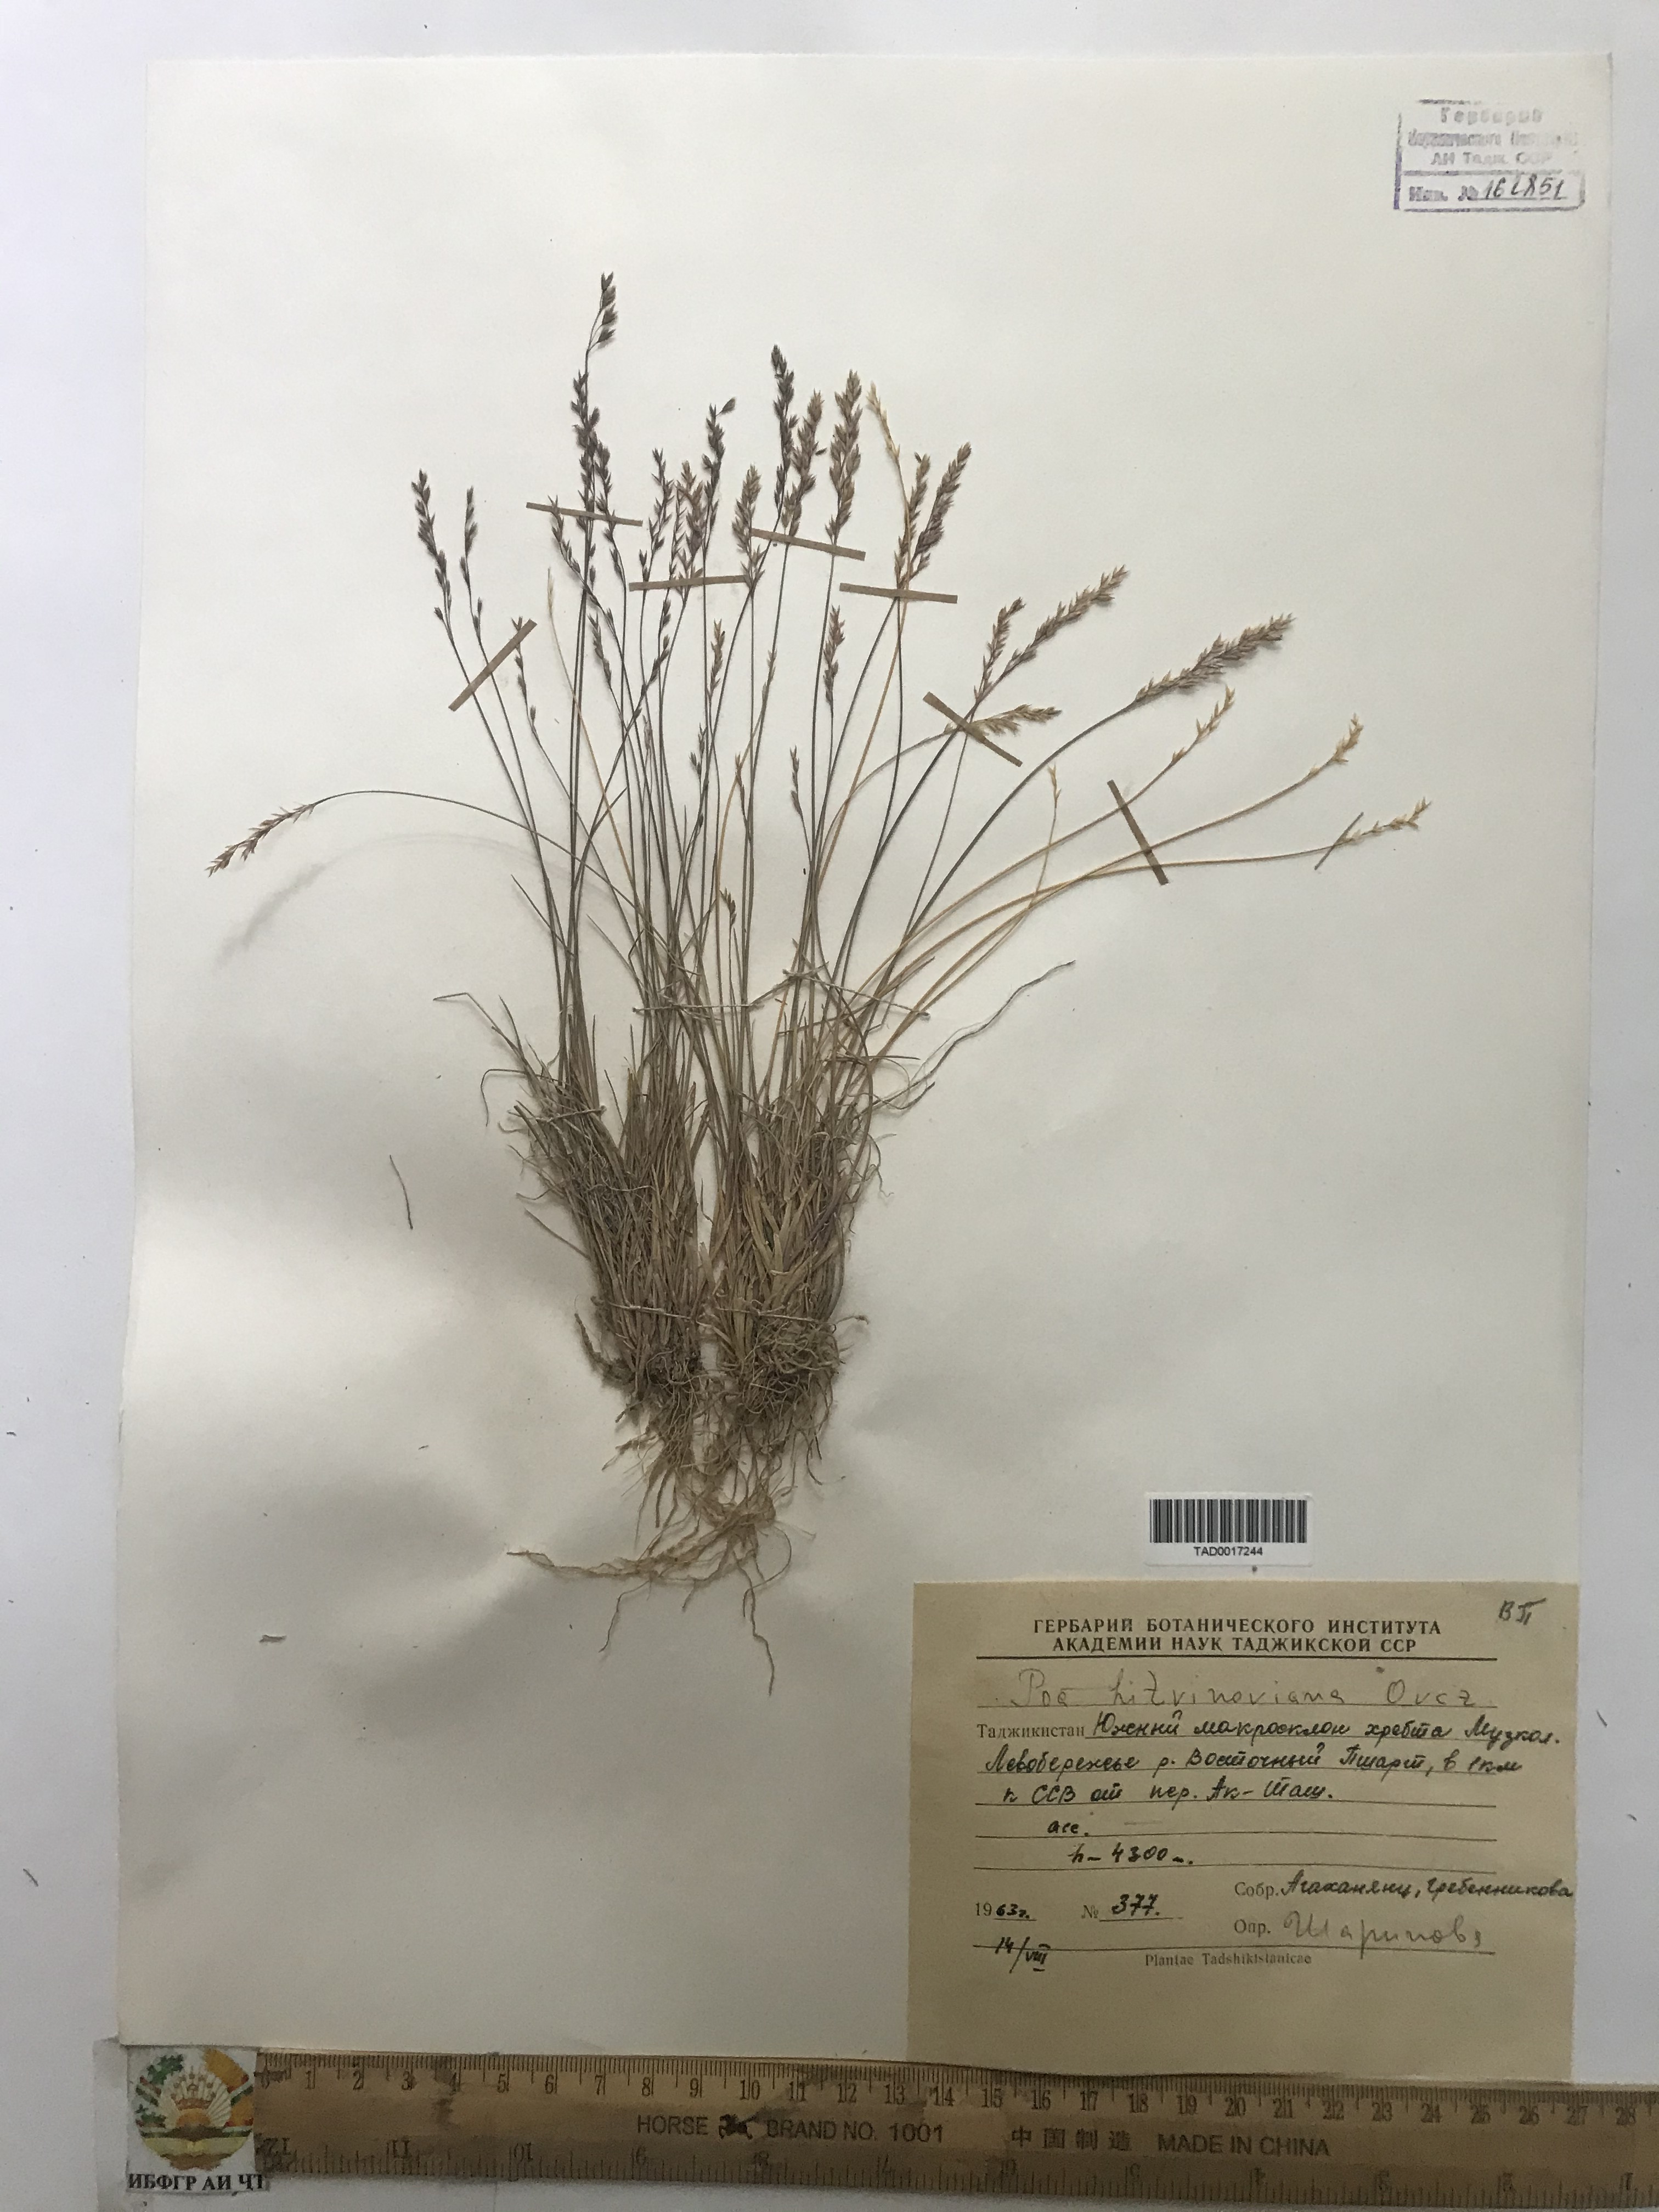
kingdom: Plantae
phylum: Tracheophyta
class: Liliopsida
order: Poales
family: Poaceae
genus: Poa
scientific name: Poa glauca
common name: Glaucous bluegrass
